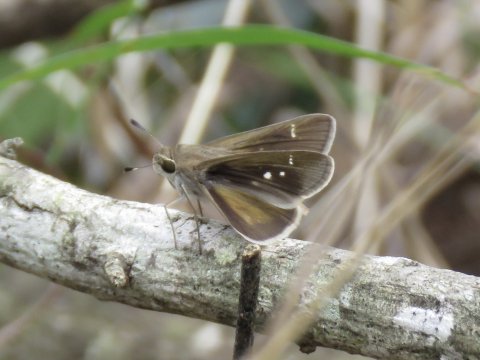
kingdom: Animalia
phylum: Arthropoda
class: Insecta
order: Lepidoptera
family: Hesperiidae
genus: Lerema
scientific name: Lerema accius
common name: Clouded Skipper
